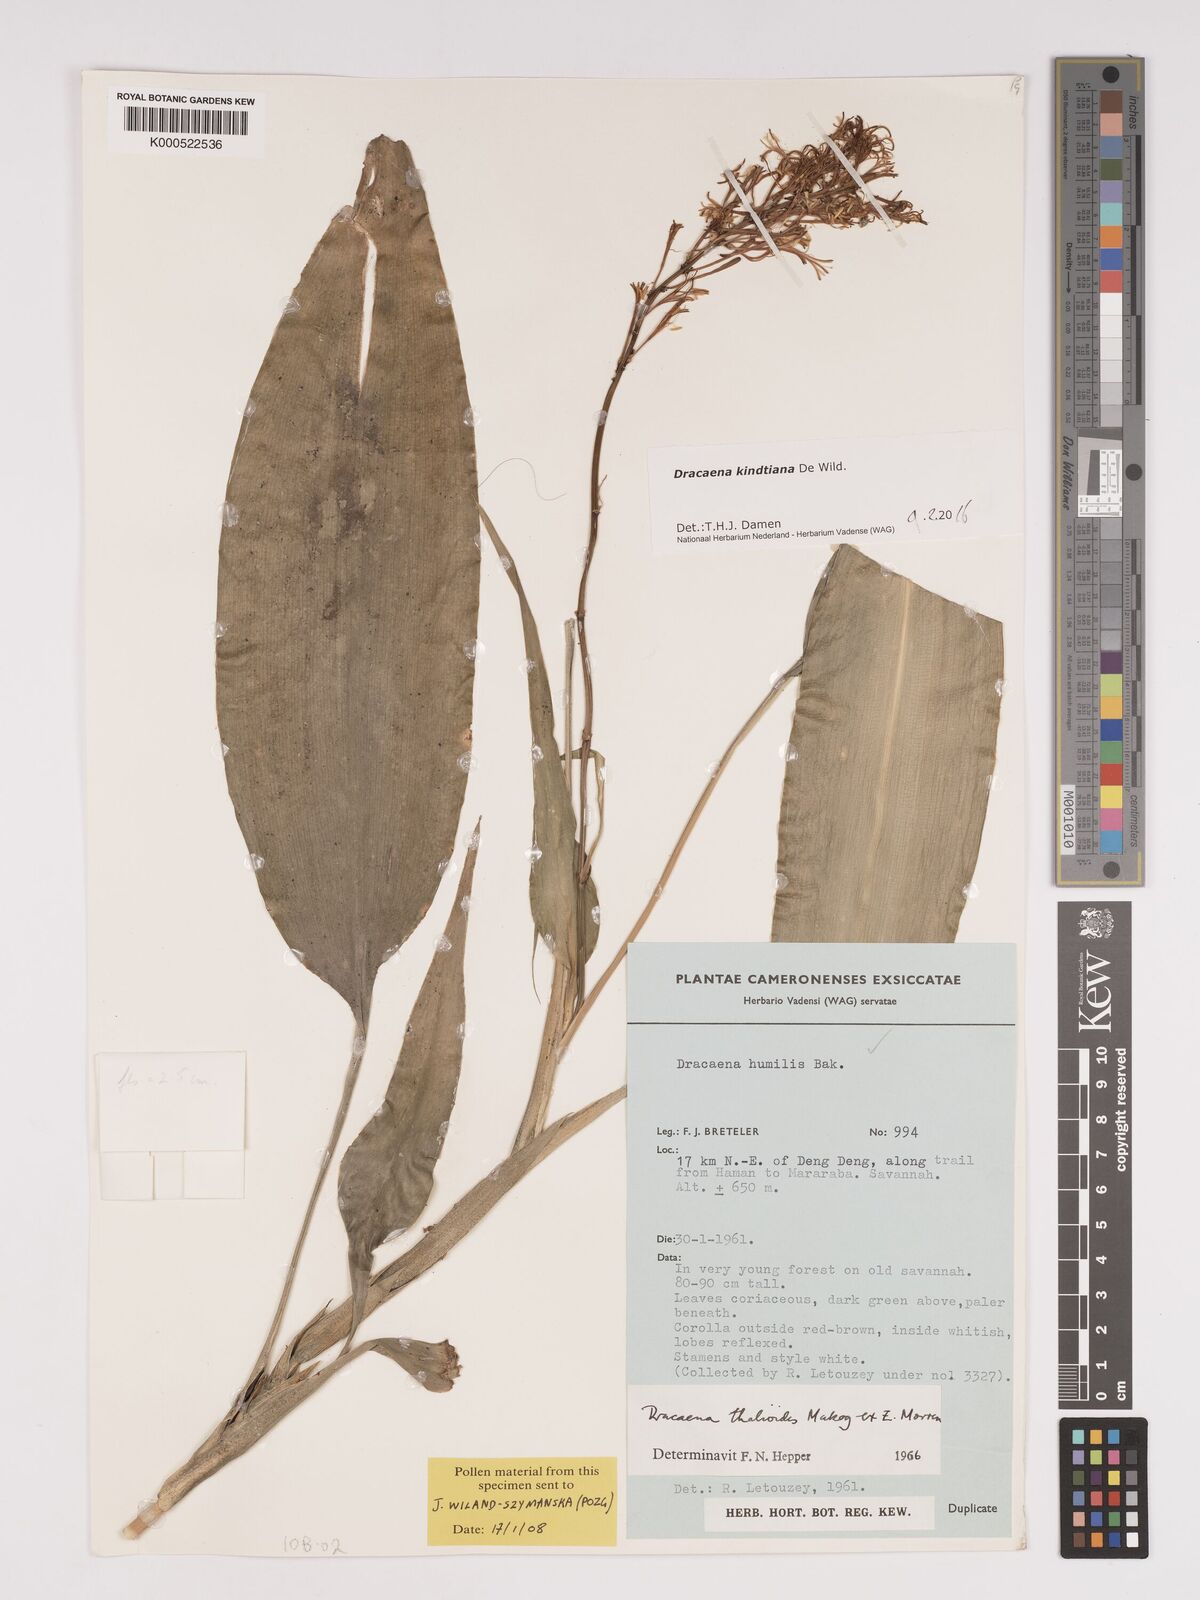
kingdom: Plantae
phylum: Tracheophyta
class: Liliopsida
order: Asparagales
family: Asparagaceae
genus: Dracaena
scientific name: Dracaena kindtiana
